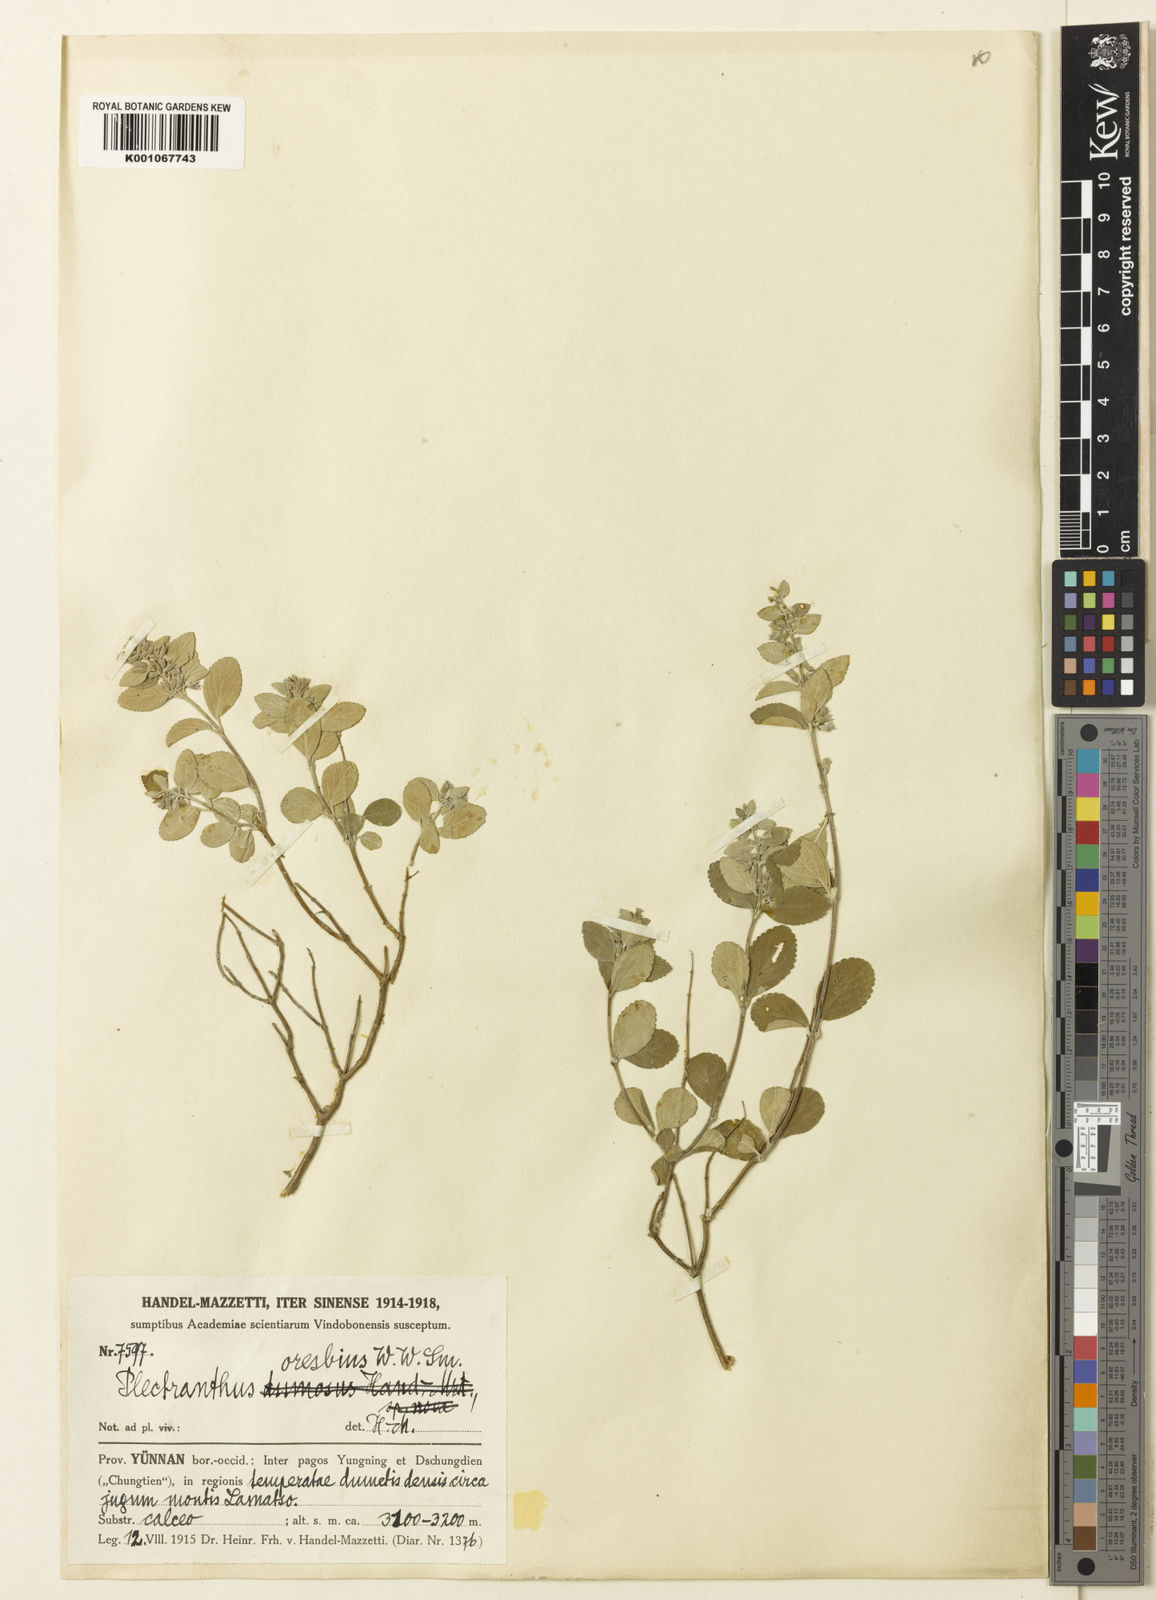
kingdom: Plantae
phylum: Tracheophyta
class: Magnoliopsida
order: Lamiales
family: Lamiaceae
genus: Isodon
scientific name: Isodon adenolomus
